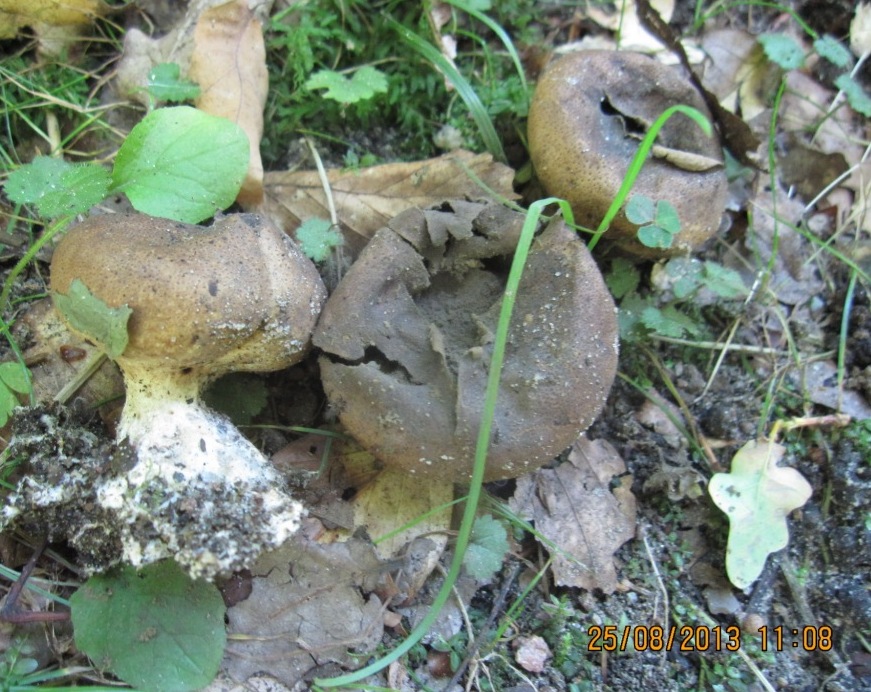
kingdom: Fungi
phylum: Basidiomycota
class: Agaricomycetes
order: Boletales
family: Sclerodermataceae
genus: Scleroderma
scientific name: Scleroderma verrucosum
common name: stilket bruskbold
